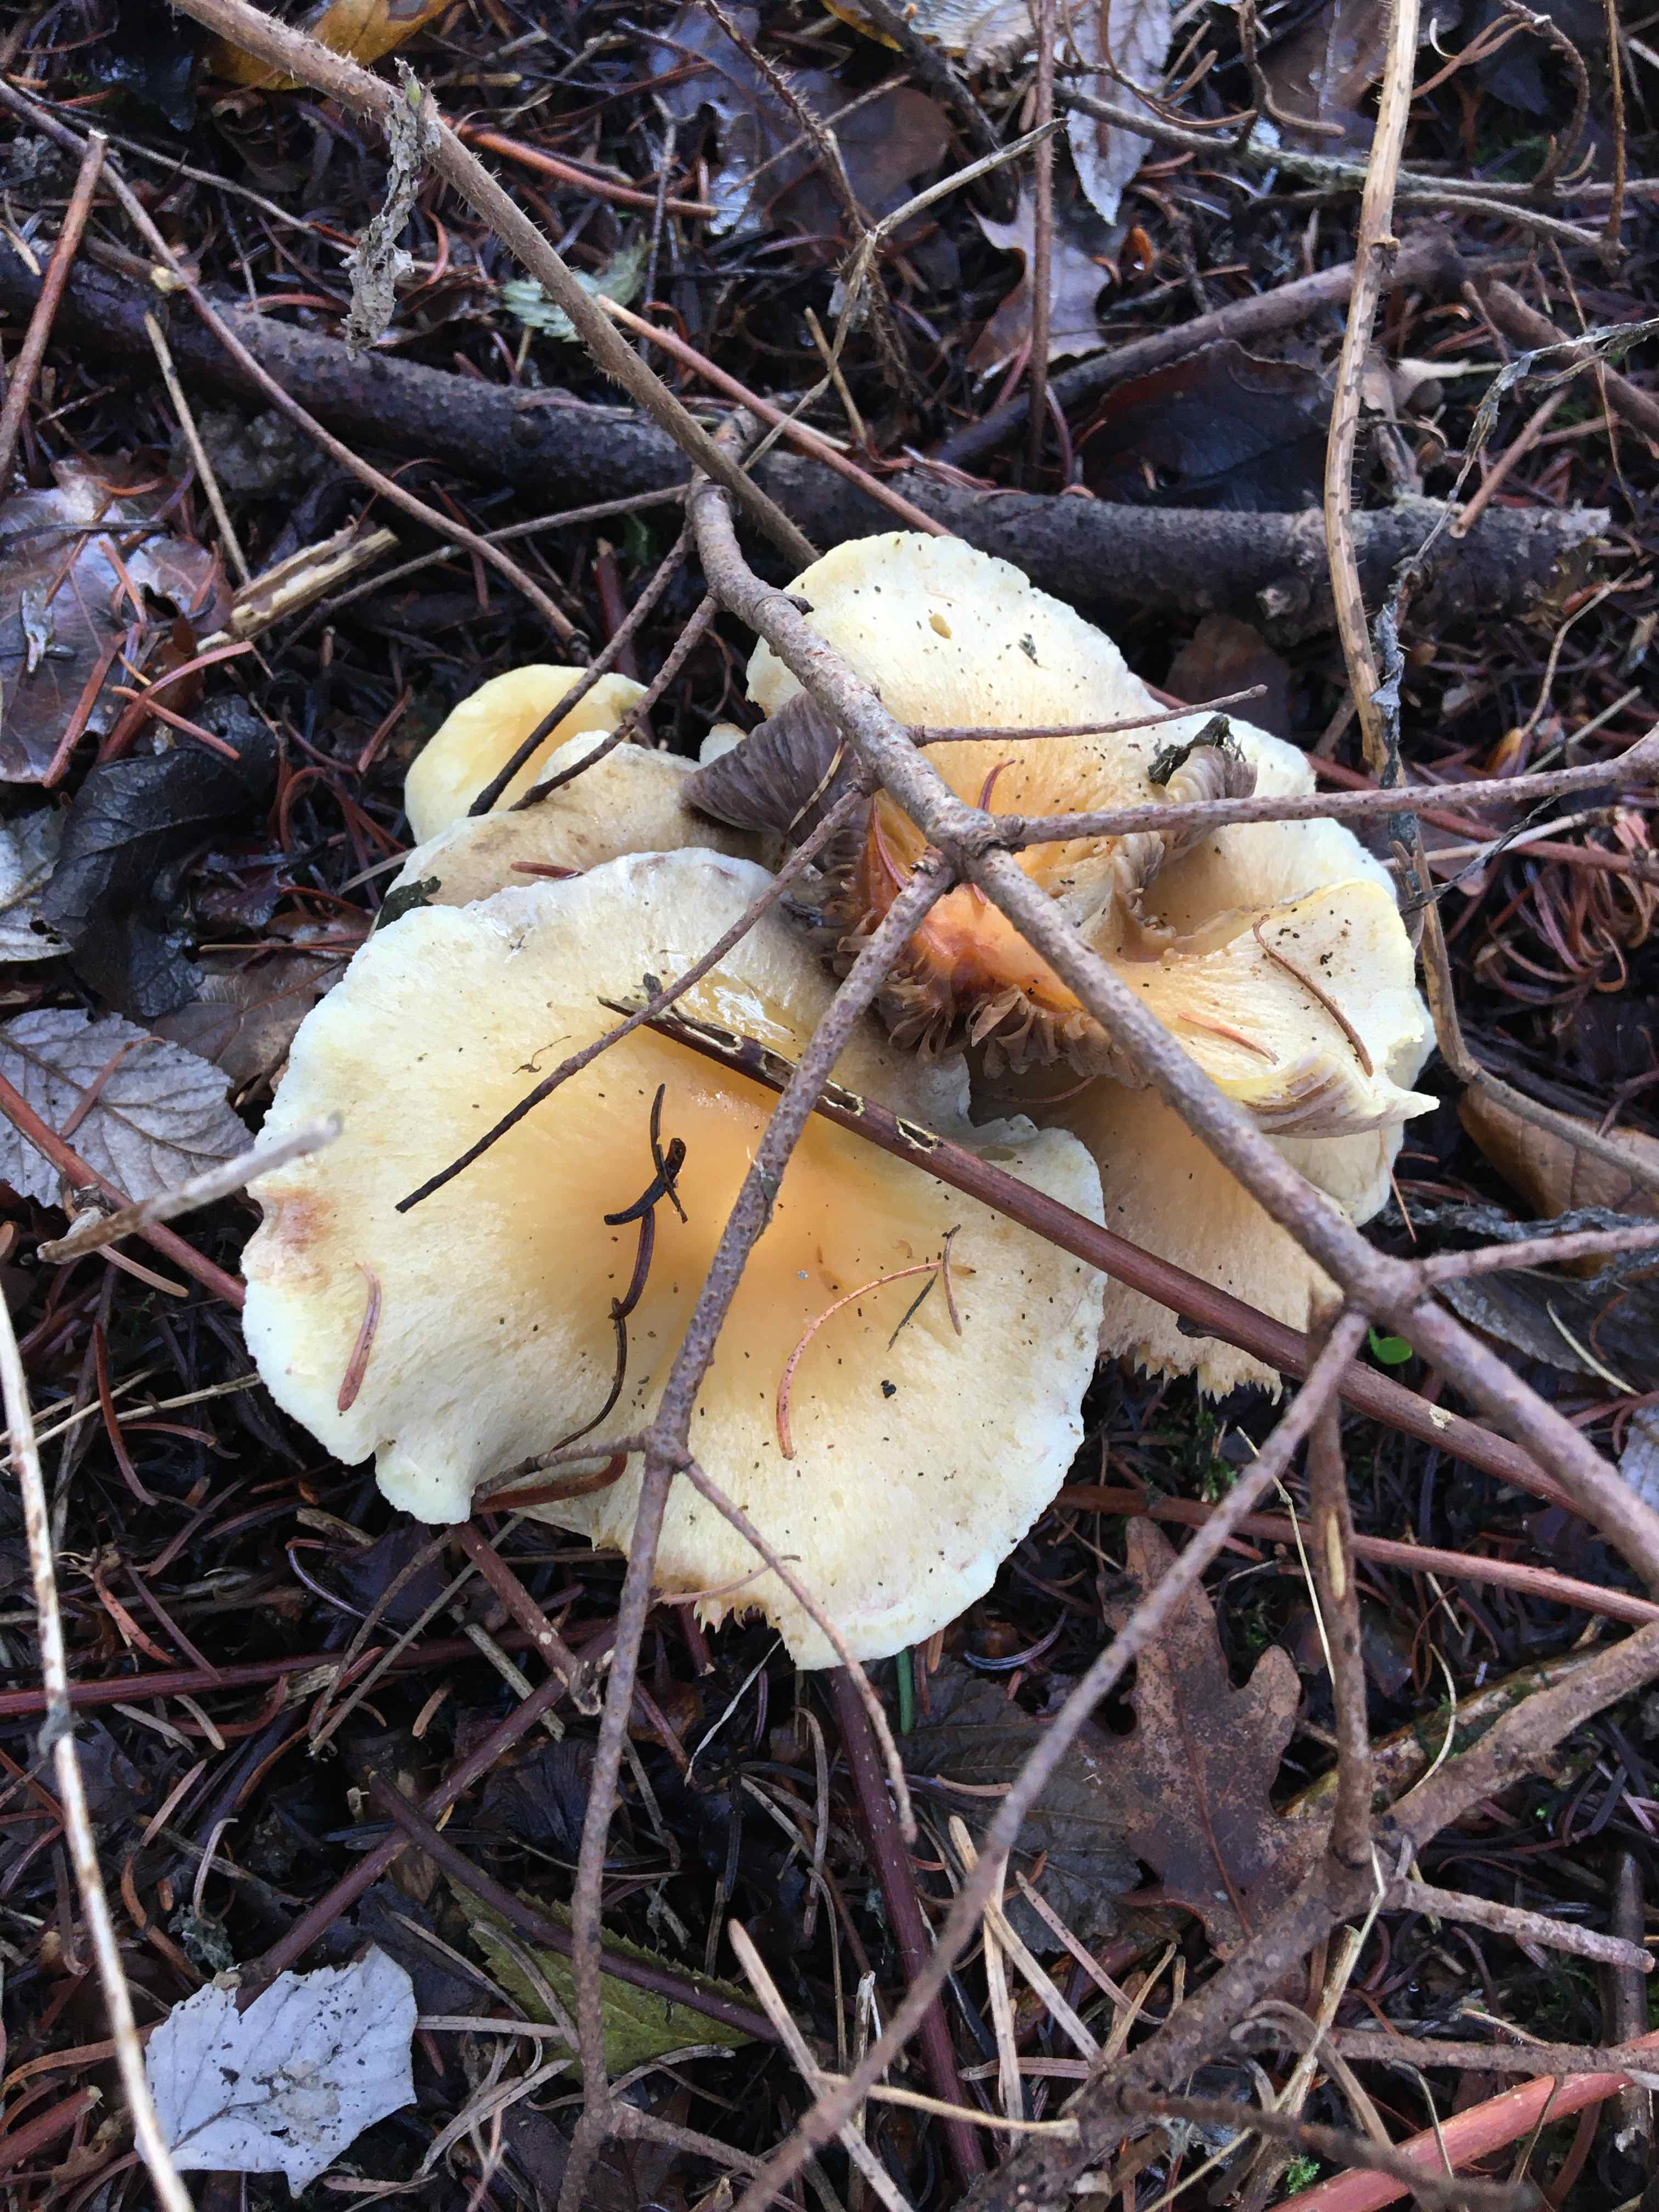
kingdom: Fungi
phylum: Basidiomycota
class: Agaricomycetes
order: Agaricales
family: Strophariaceae
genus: Hypholoma
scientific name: Hypholoma capnoides
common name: gran-svovlhat
